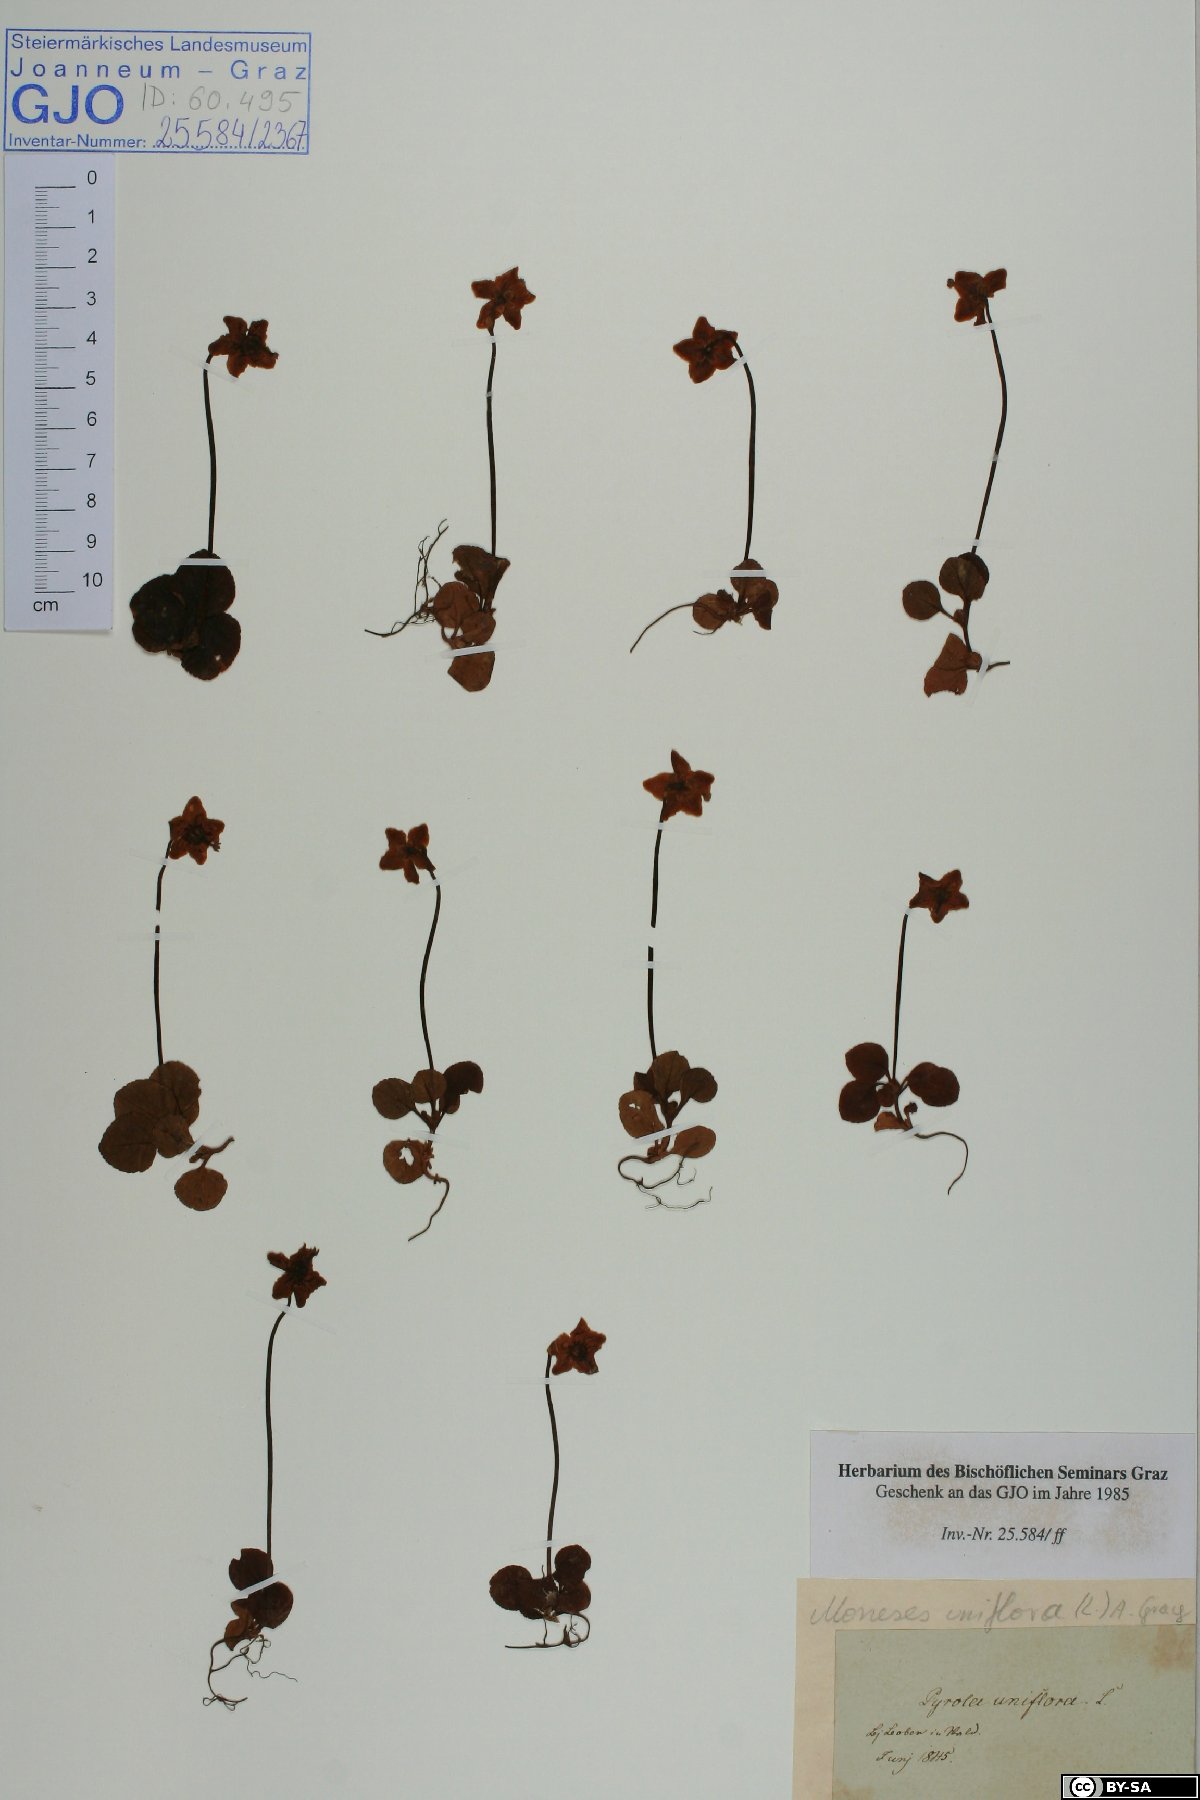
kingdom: Plantae
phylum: Tracheophyta
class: Magnoliopsida
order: Ericales
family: Ericaceae
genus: Moneses
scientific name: Moneses uniflora
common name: One-flowered wintergreen
